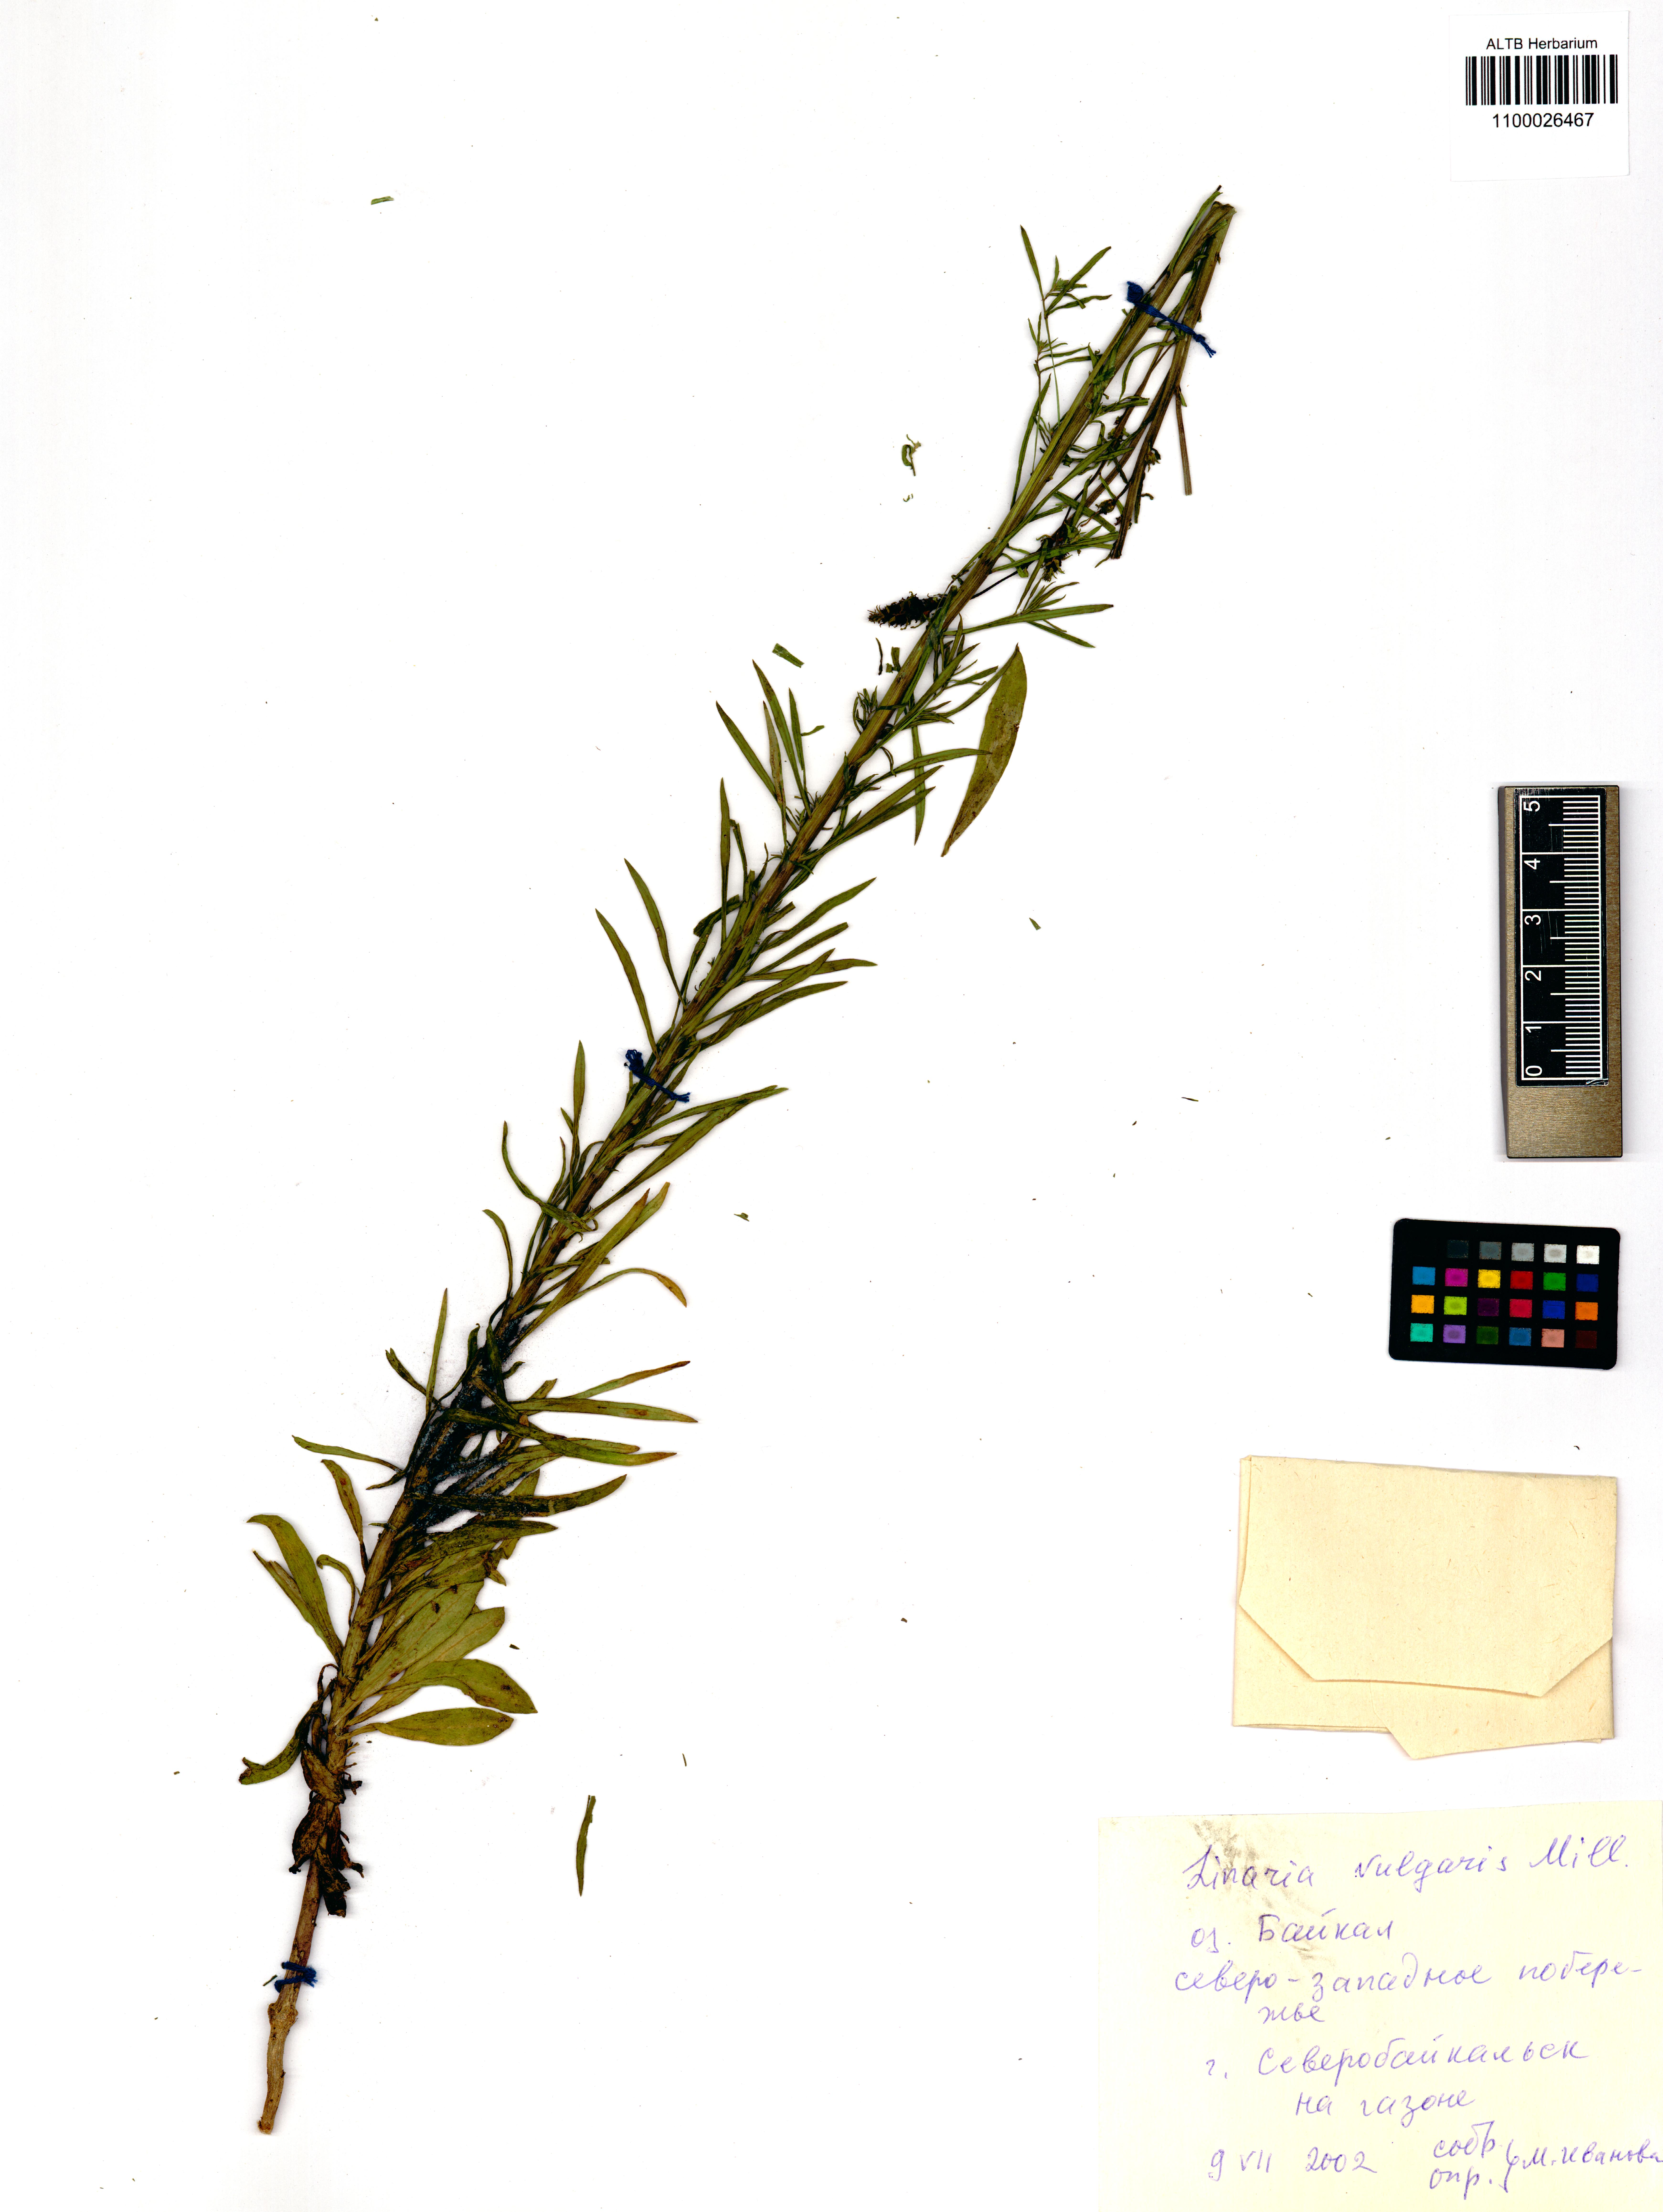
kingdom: Plantae
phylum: Tracheophyta
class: Magnoliopsida
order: Lamiales
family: Plantaginaceae
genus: Linaria
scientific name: Linaria vulgaris
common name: Butter and eggs
